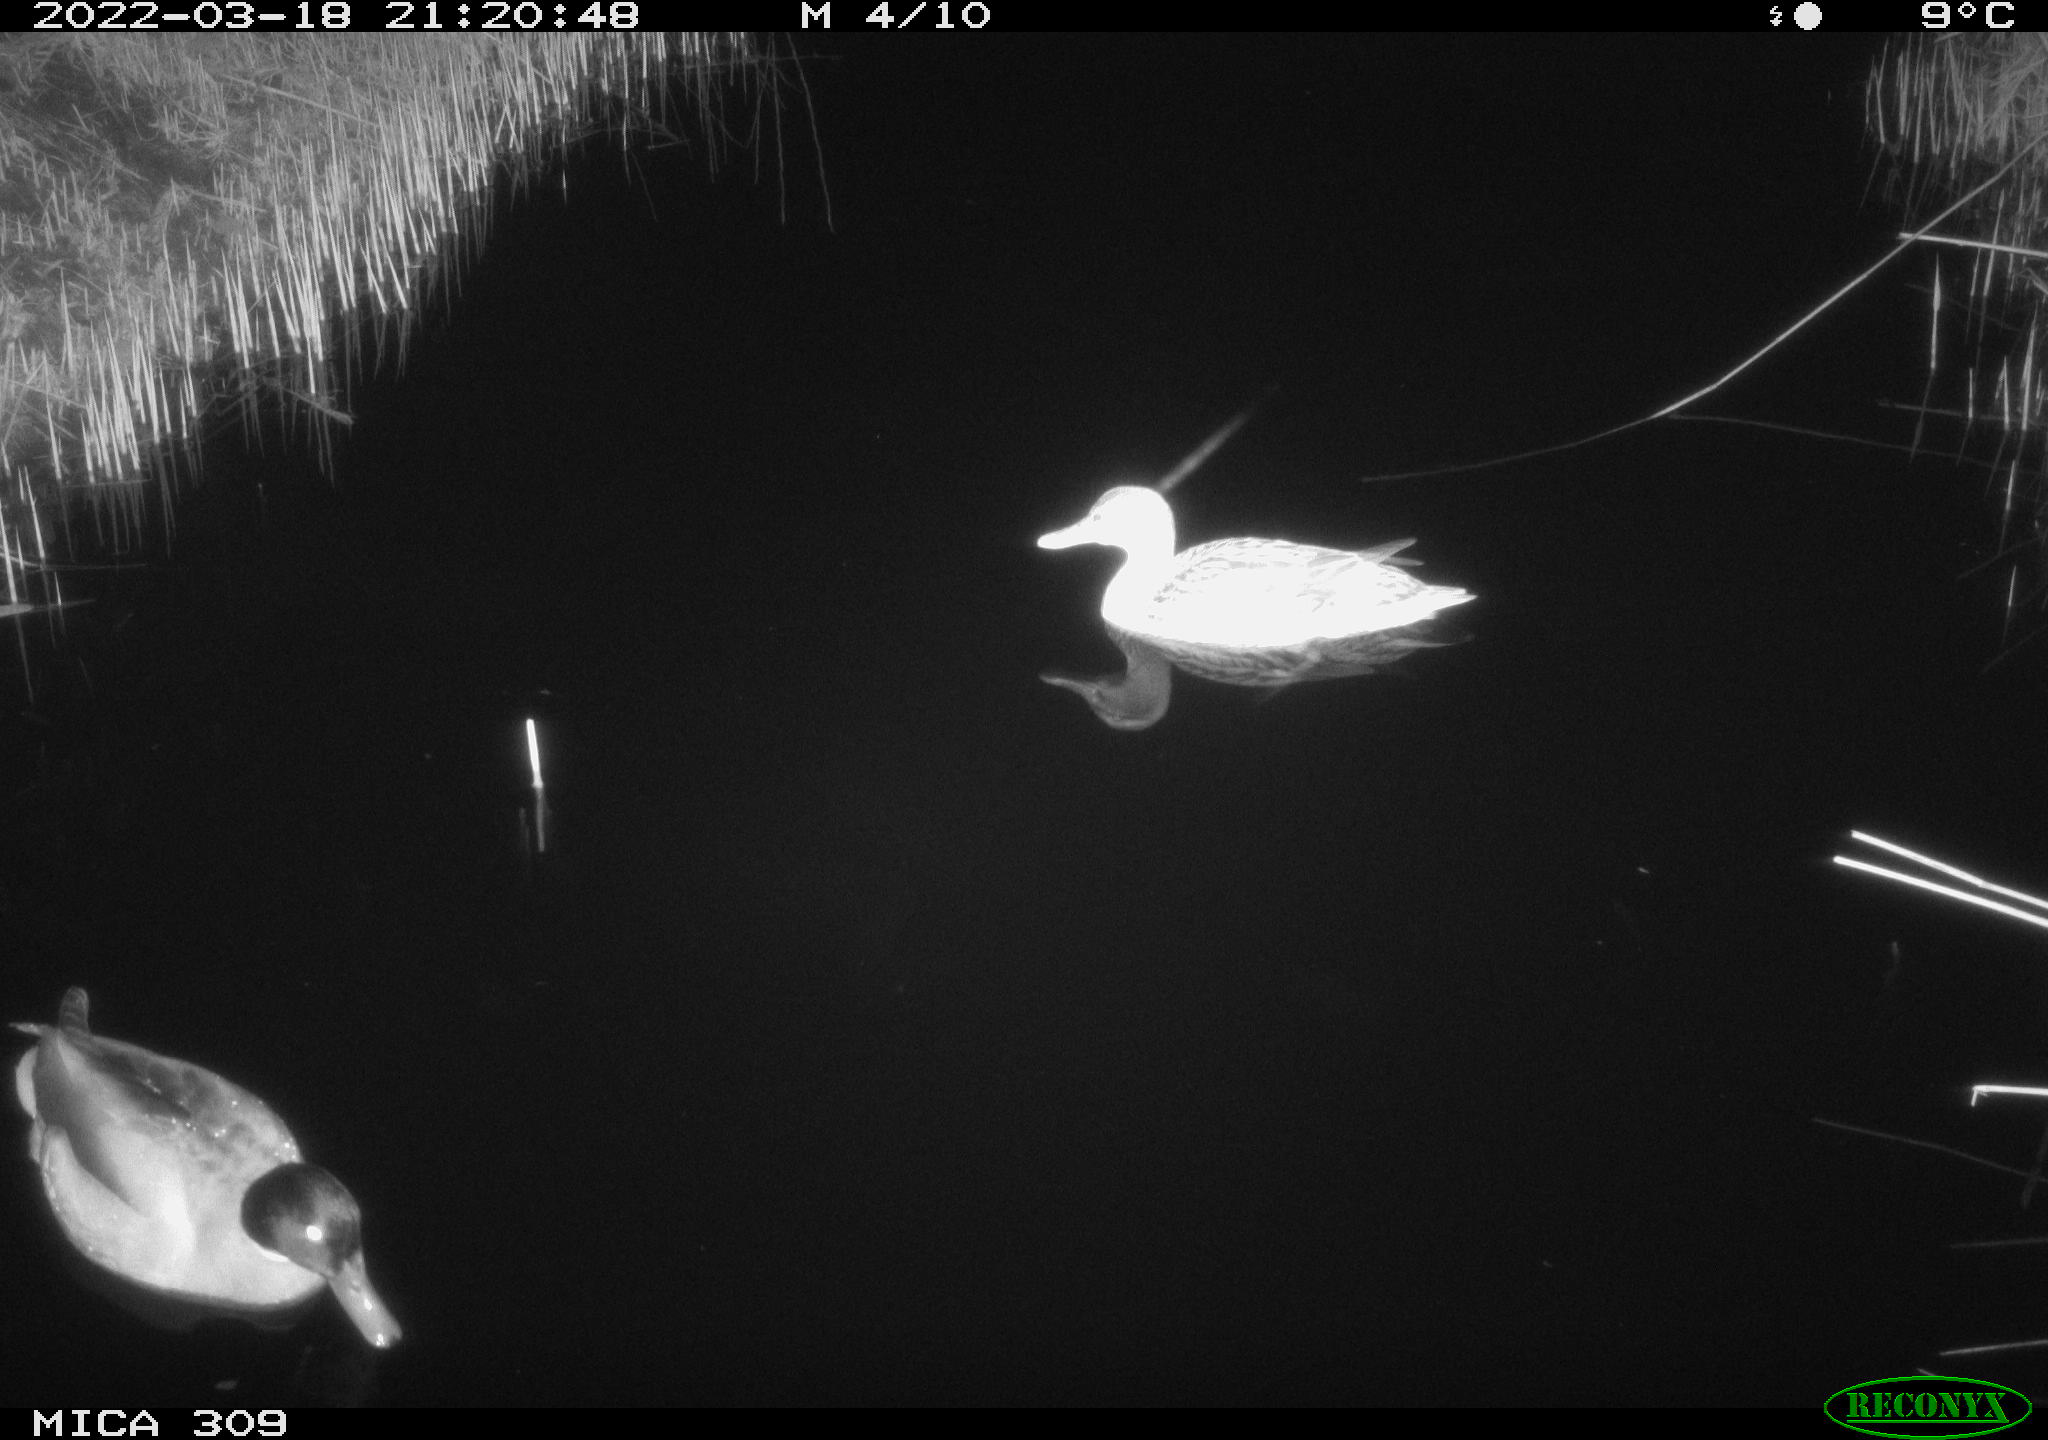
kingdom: Animalia
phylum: Chordata
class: Aves
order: Anseriformes
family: Anatidae
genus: Anas
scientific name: Anas platyrhynchos
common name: Mallard
